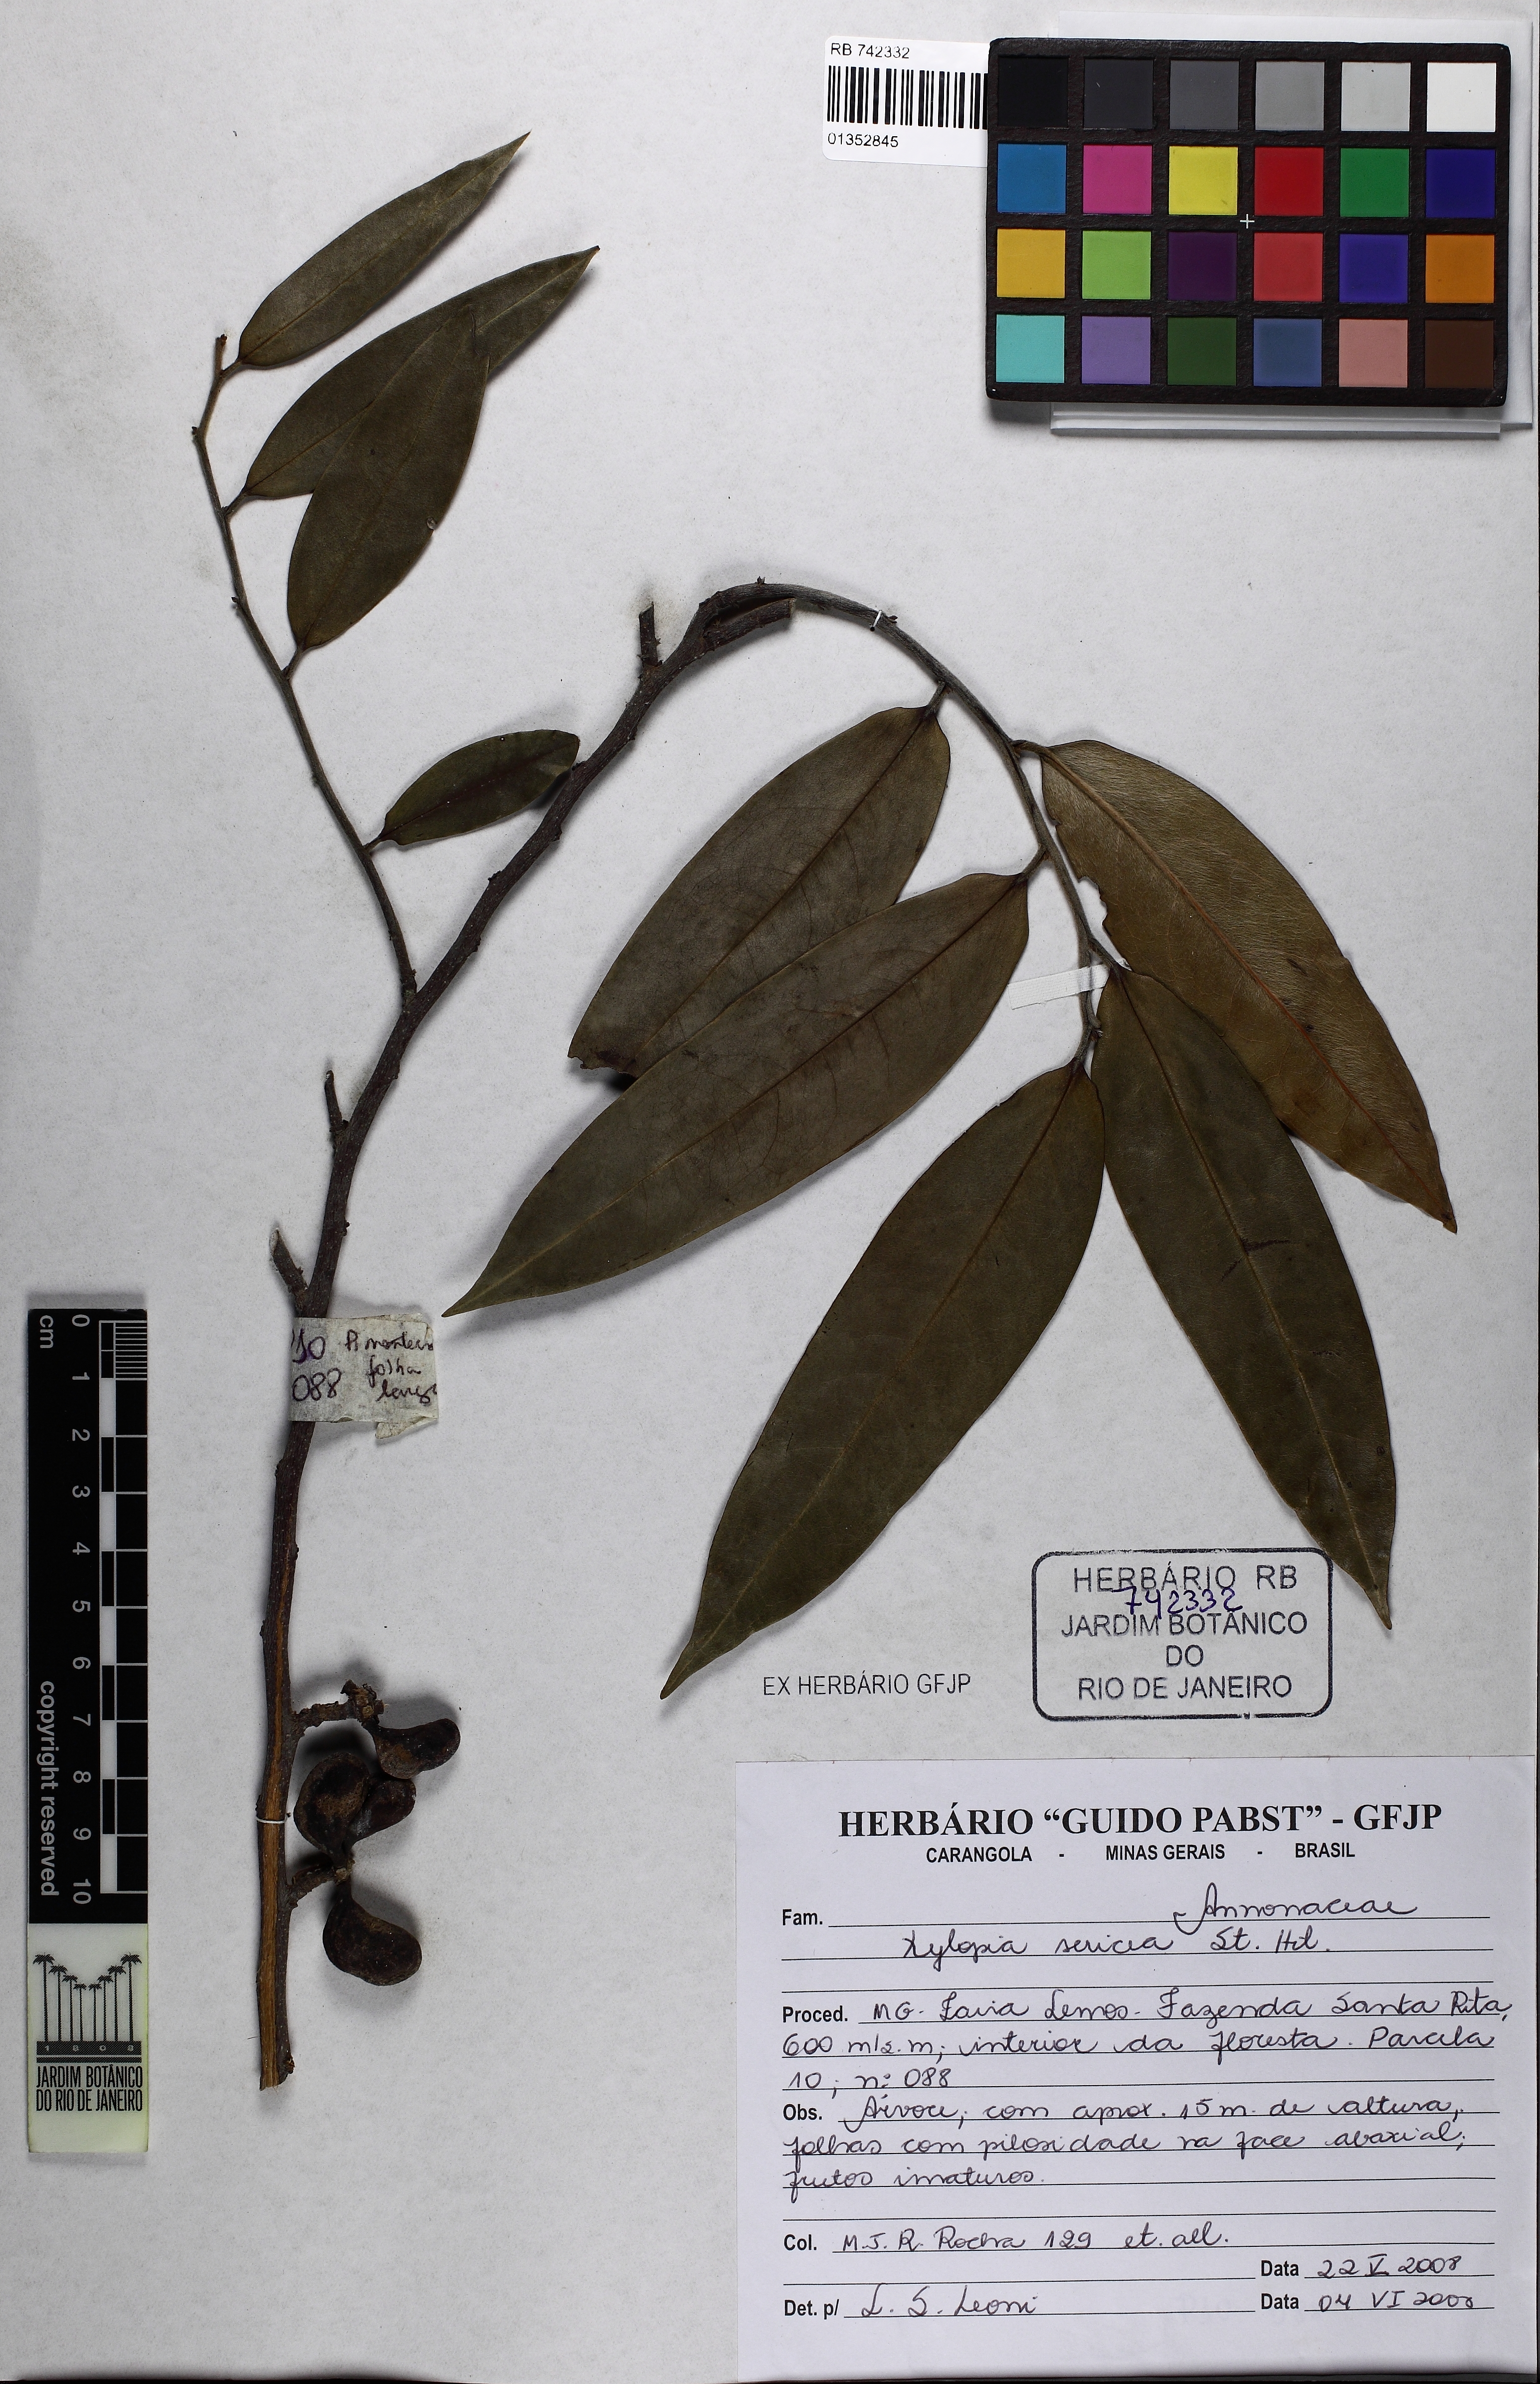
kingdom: Plantae
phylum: Tracheophyta
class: Magnoliopsida
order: Magnoliales
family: Annonaceae
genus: Xylopia
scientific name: Xylopia sericea
